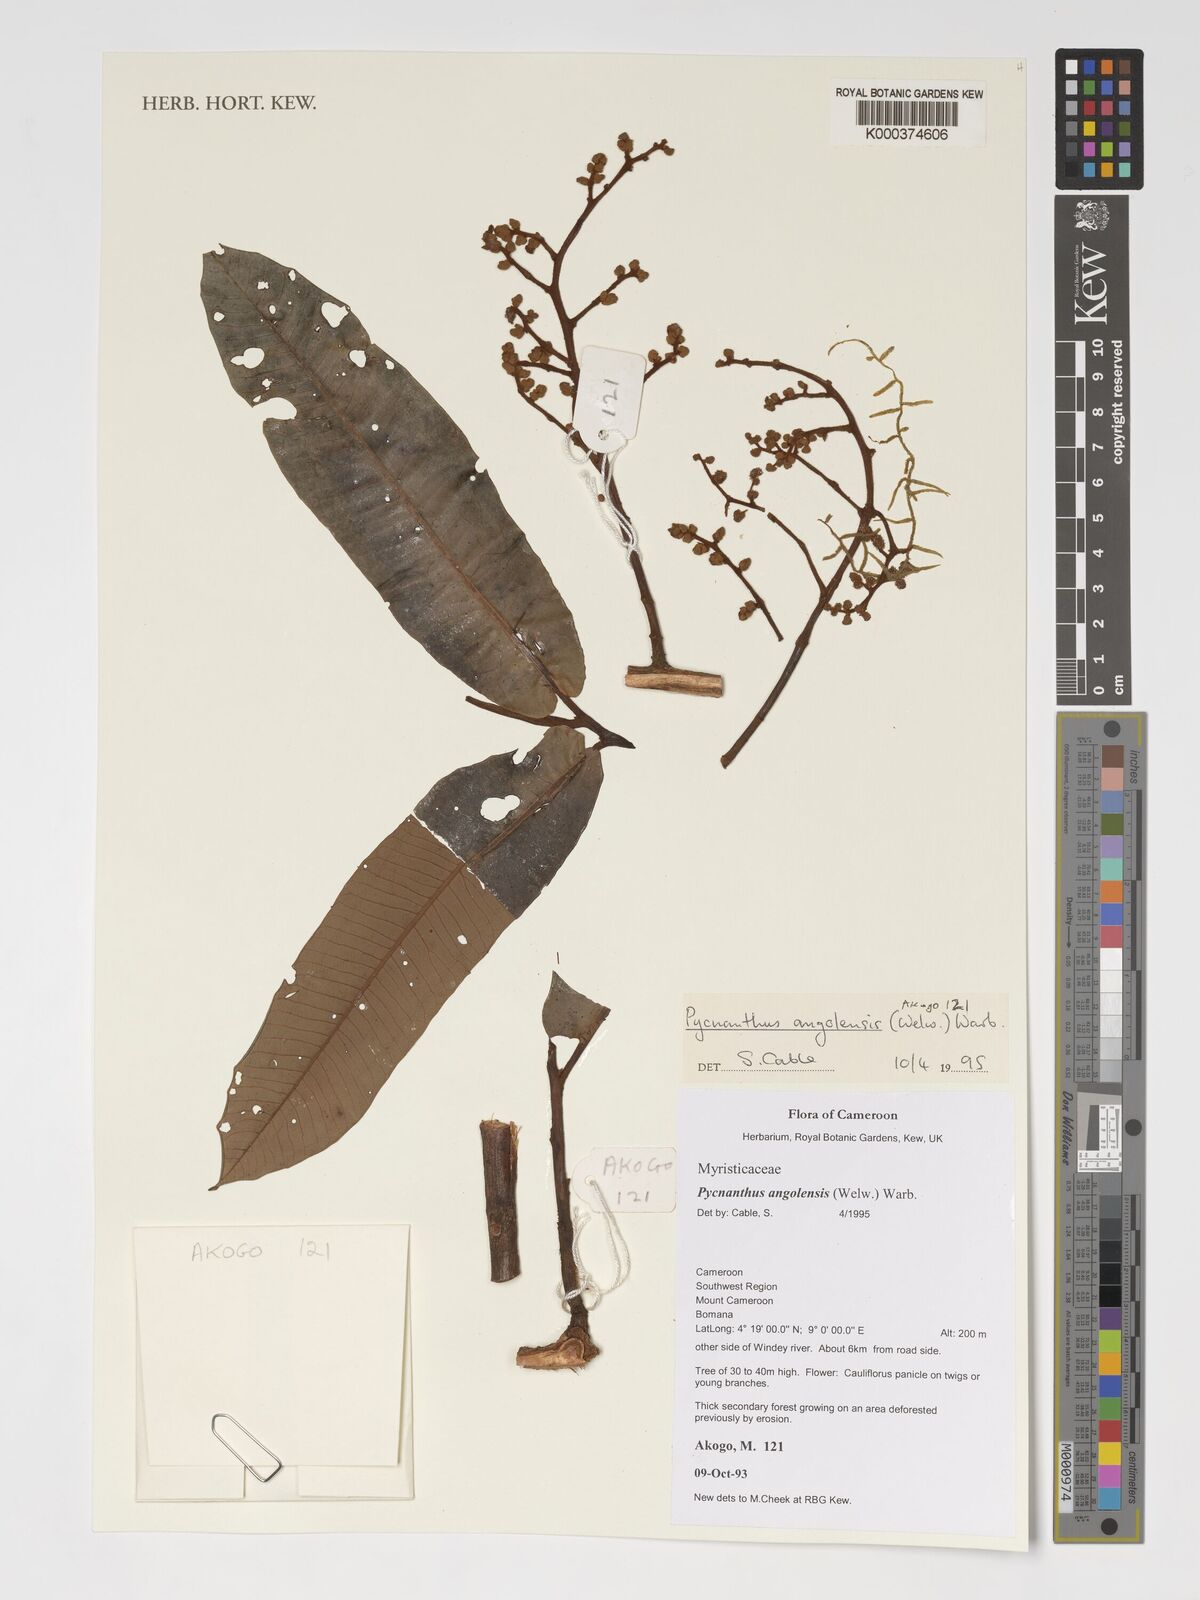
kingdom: Plantae
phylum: Tracheophyta
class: Magnoliopsida
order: Magnoliales
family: Myristicaceae
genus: Pycnanthus
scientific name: Pycnanthus angolensis
